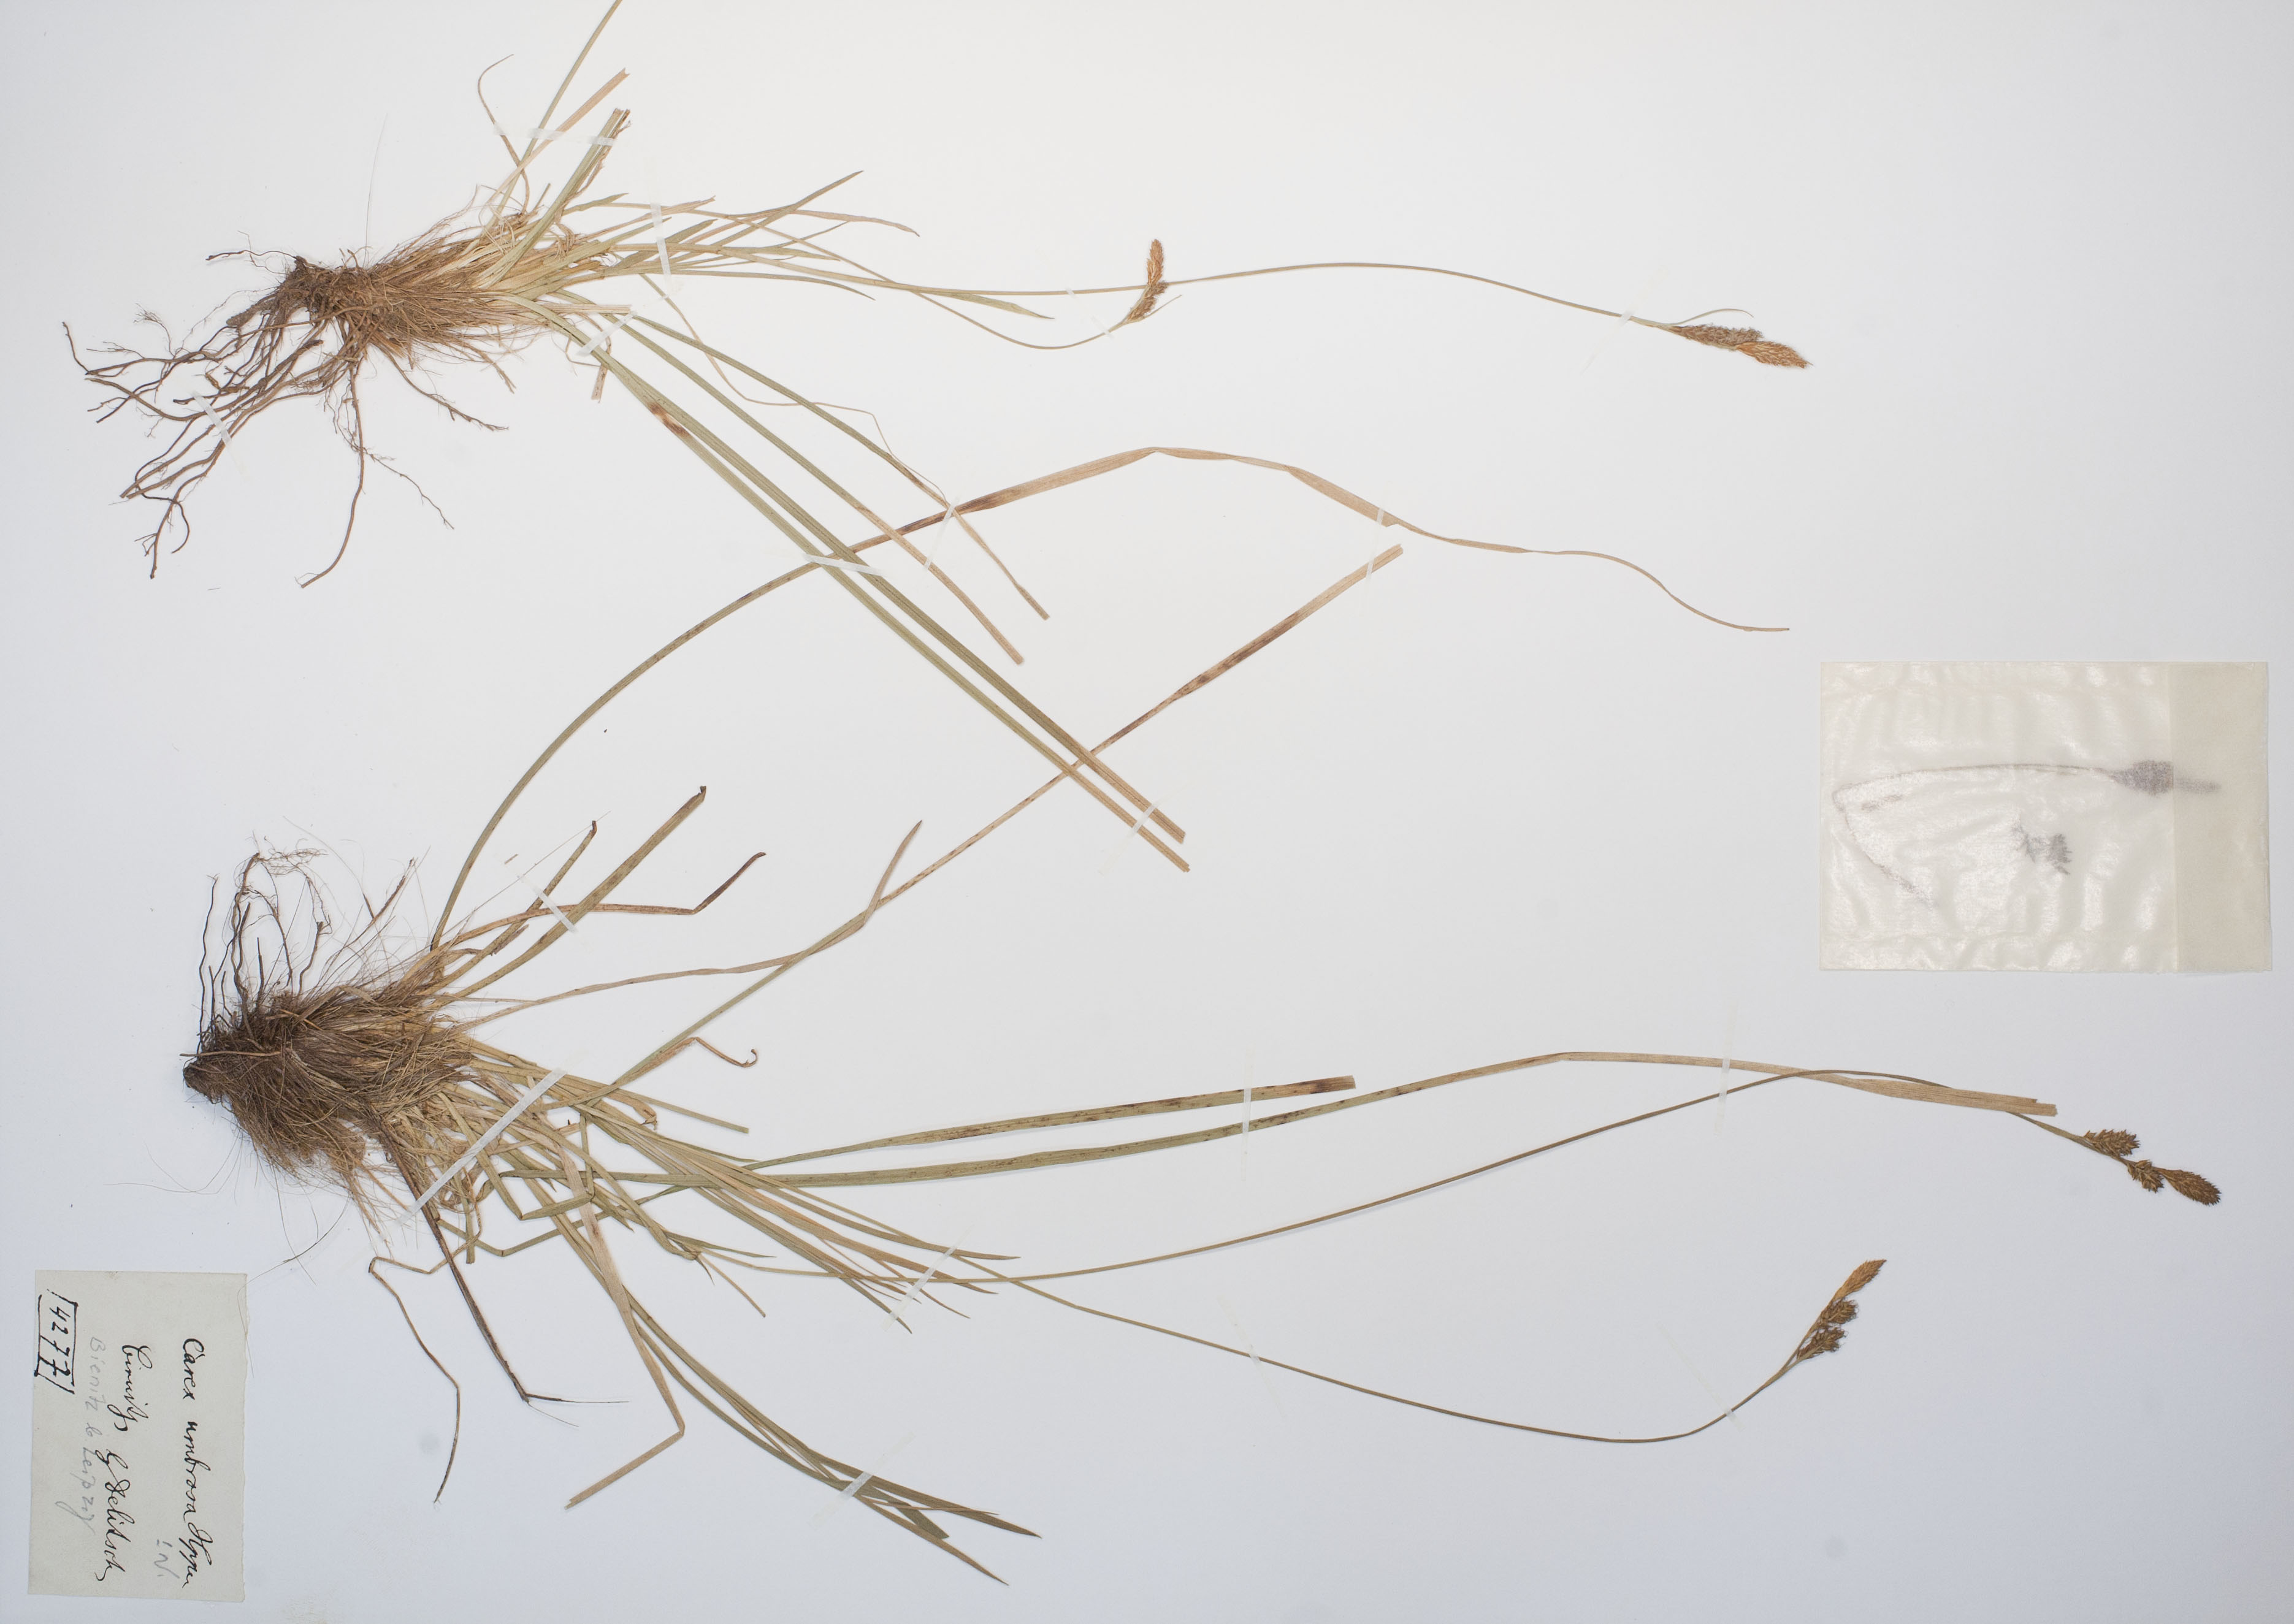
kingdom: Plantae
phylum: Tracheophyta
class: Liliopsida
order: Poales
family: Cyperaceae
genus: Carex
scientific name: Carex umbrosa
